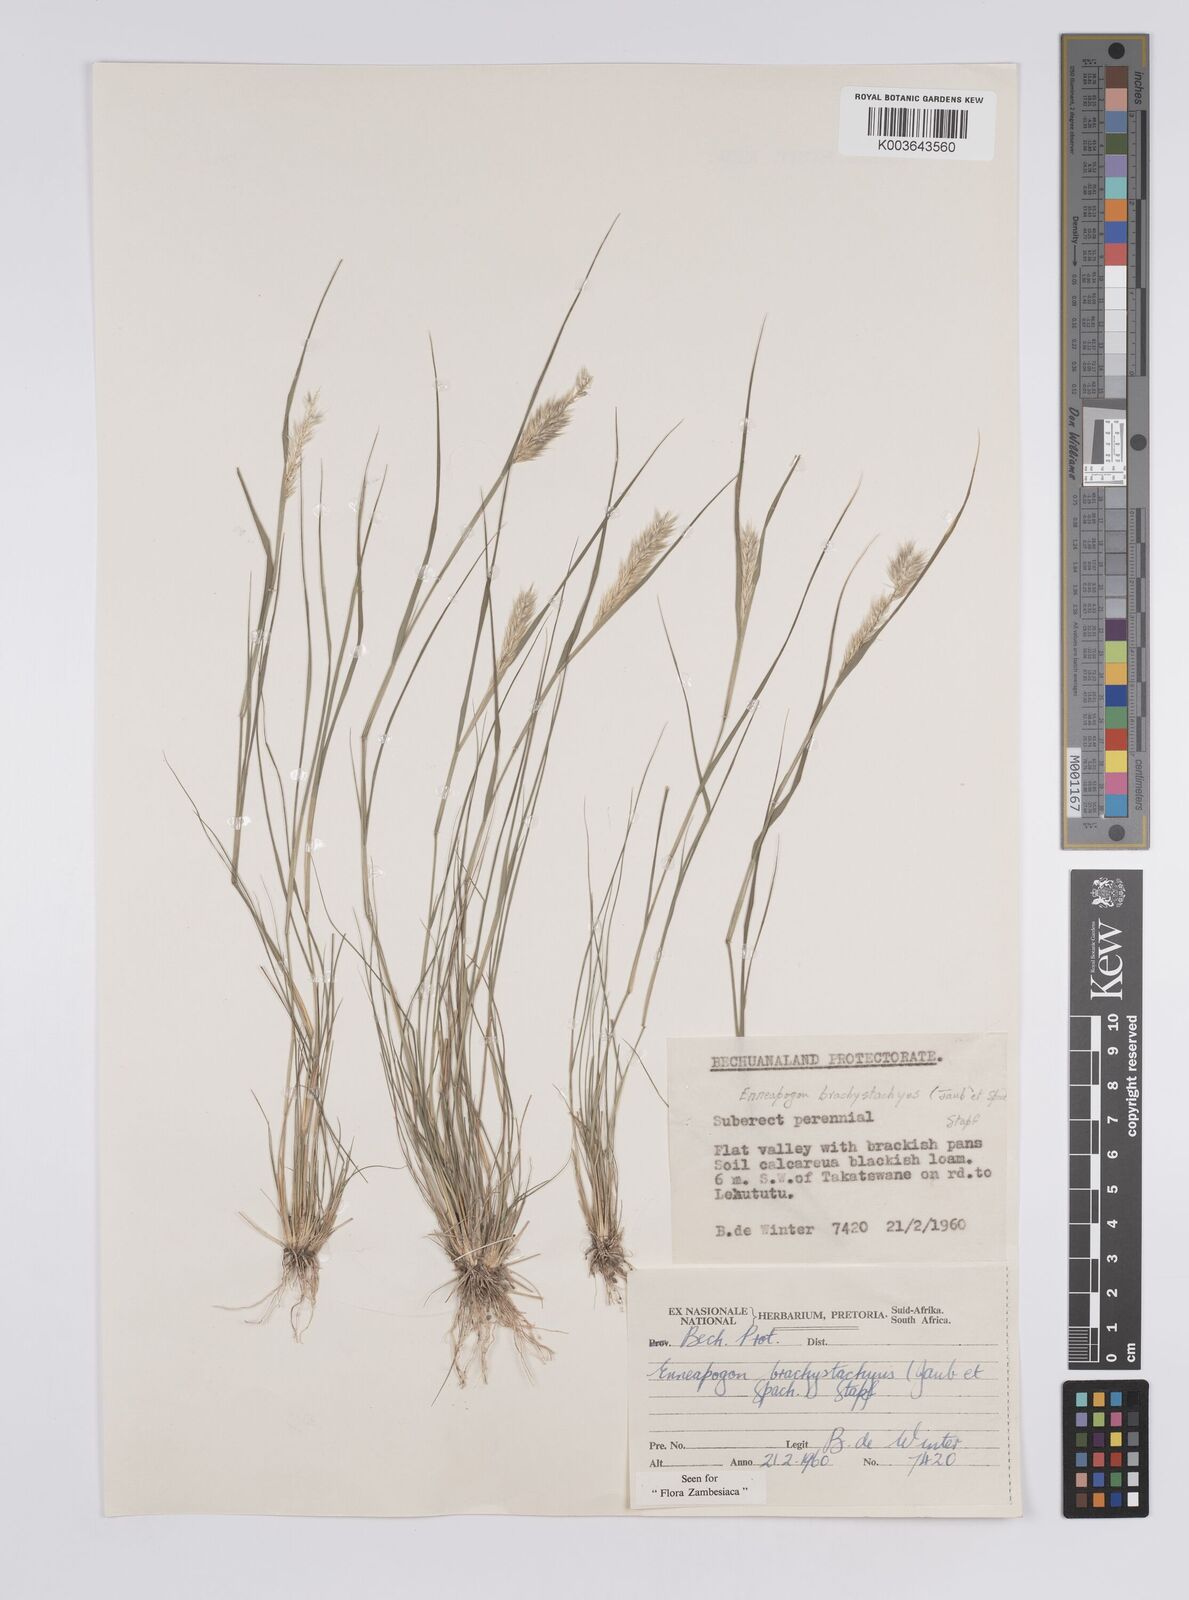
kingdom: Plantae
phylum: Tracheophyta
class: Liliopsida
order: Poales
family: Poaceae
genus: Enneapogon
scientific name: Enneapogon desvauxii
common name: Feather pappus grass
